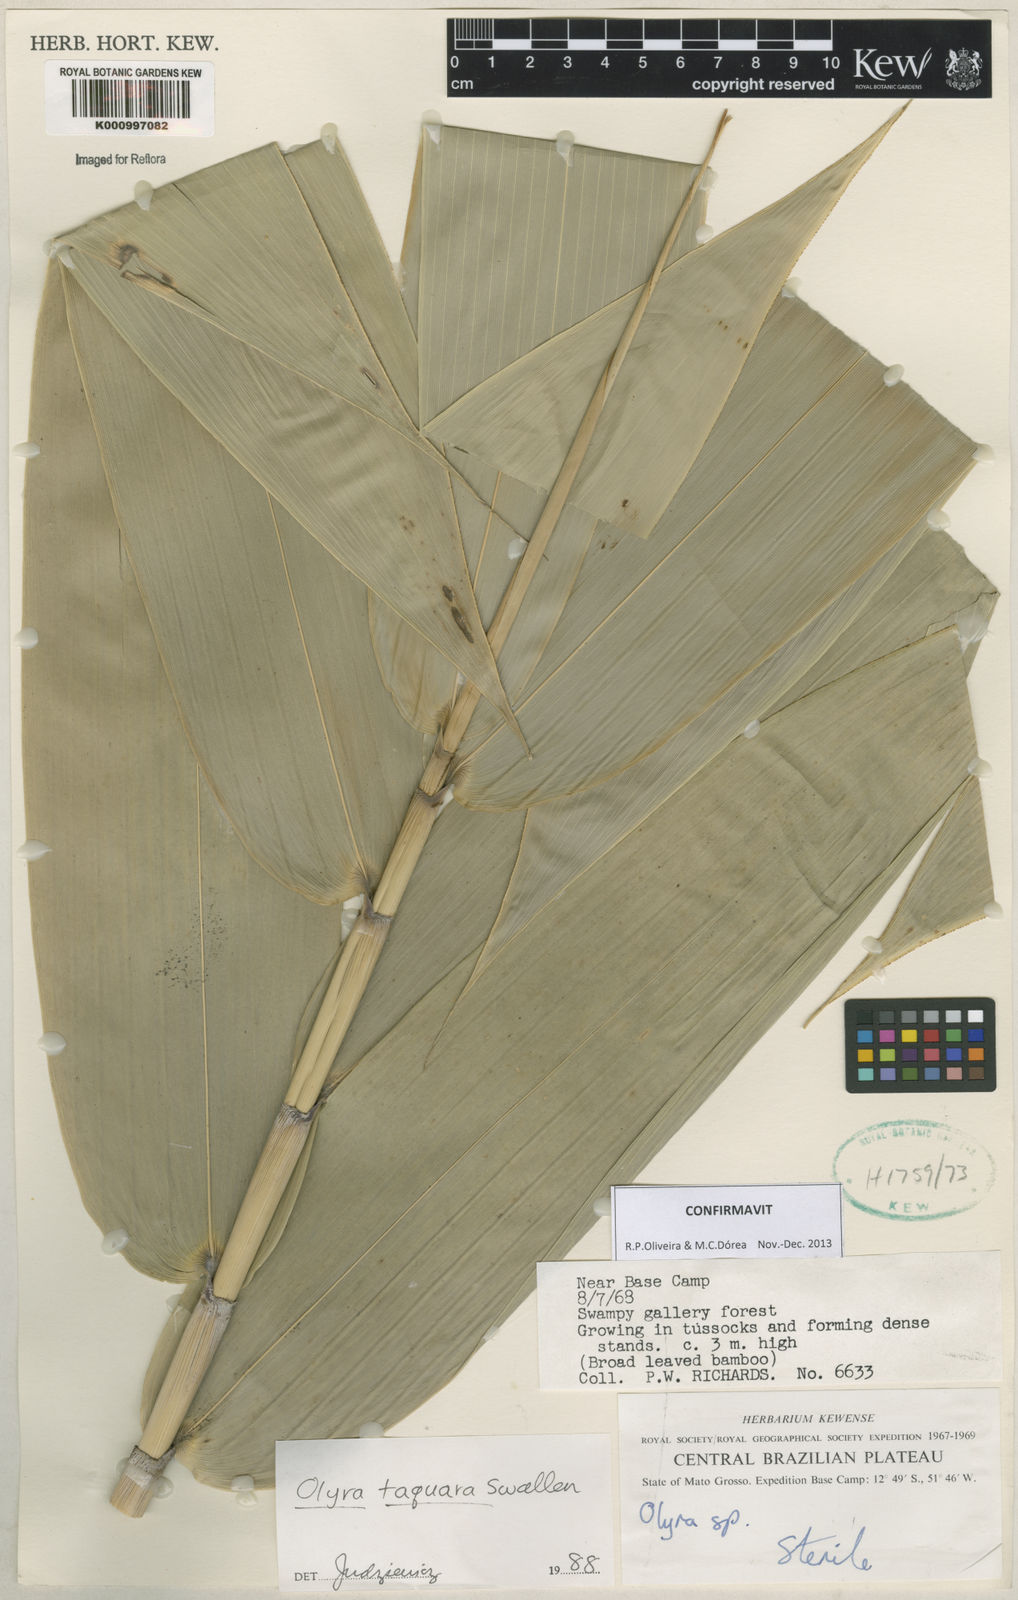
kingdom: Plantae
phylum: Tracheophyta
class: Liliopsida
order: Poales
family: Poaceae
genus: Olyra
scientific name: Olyra taquara
